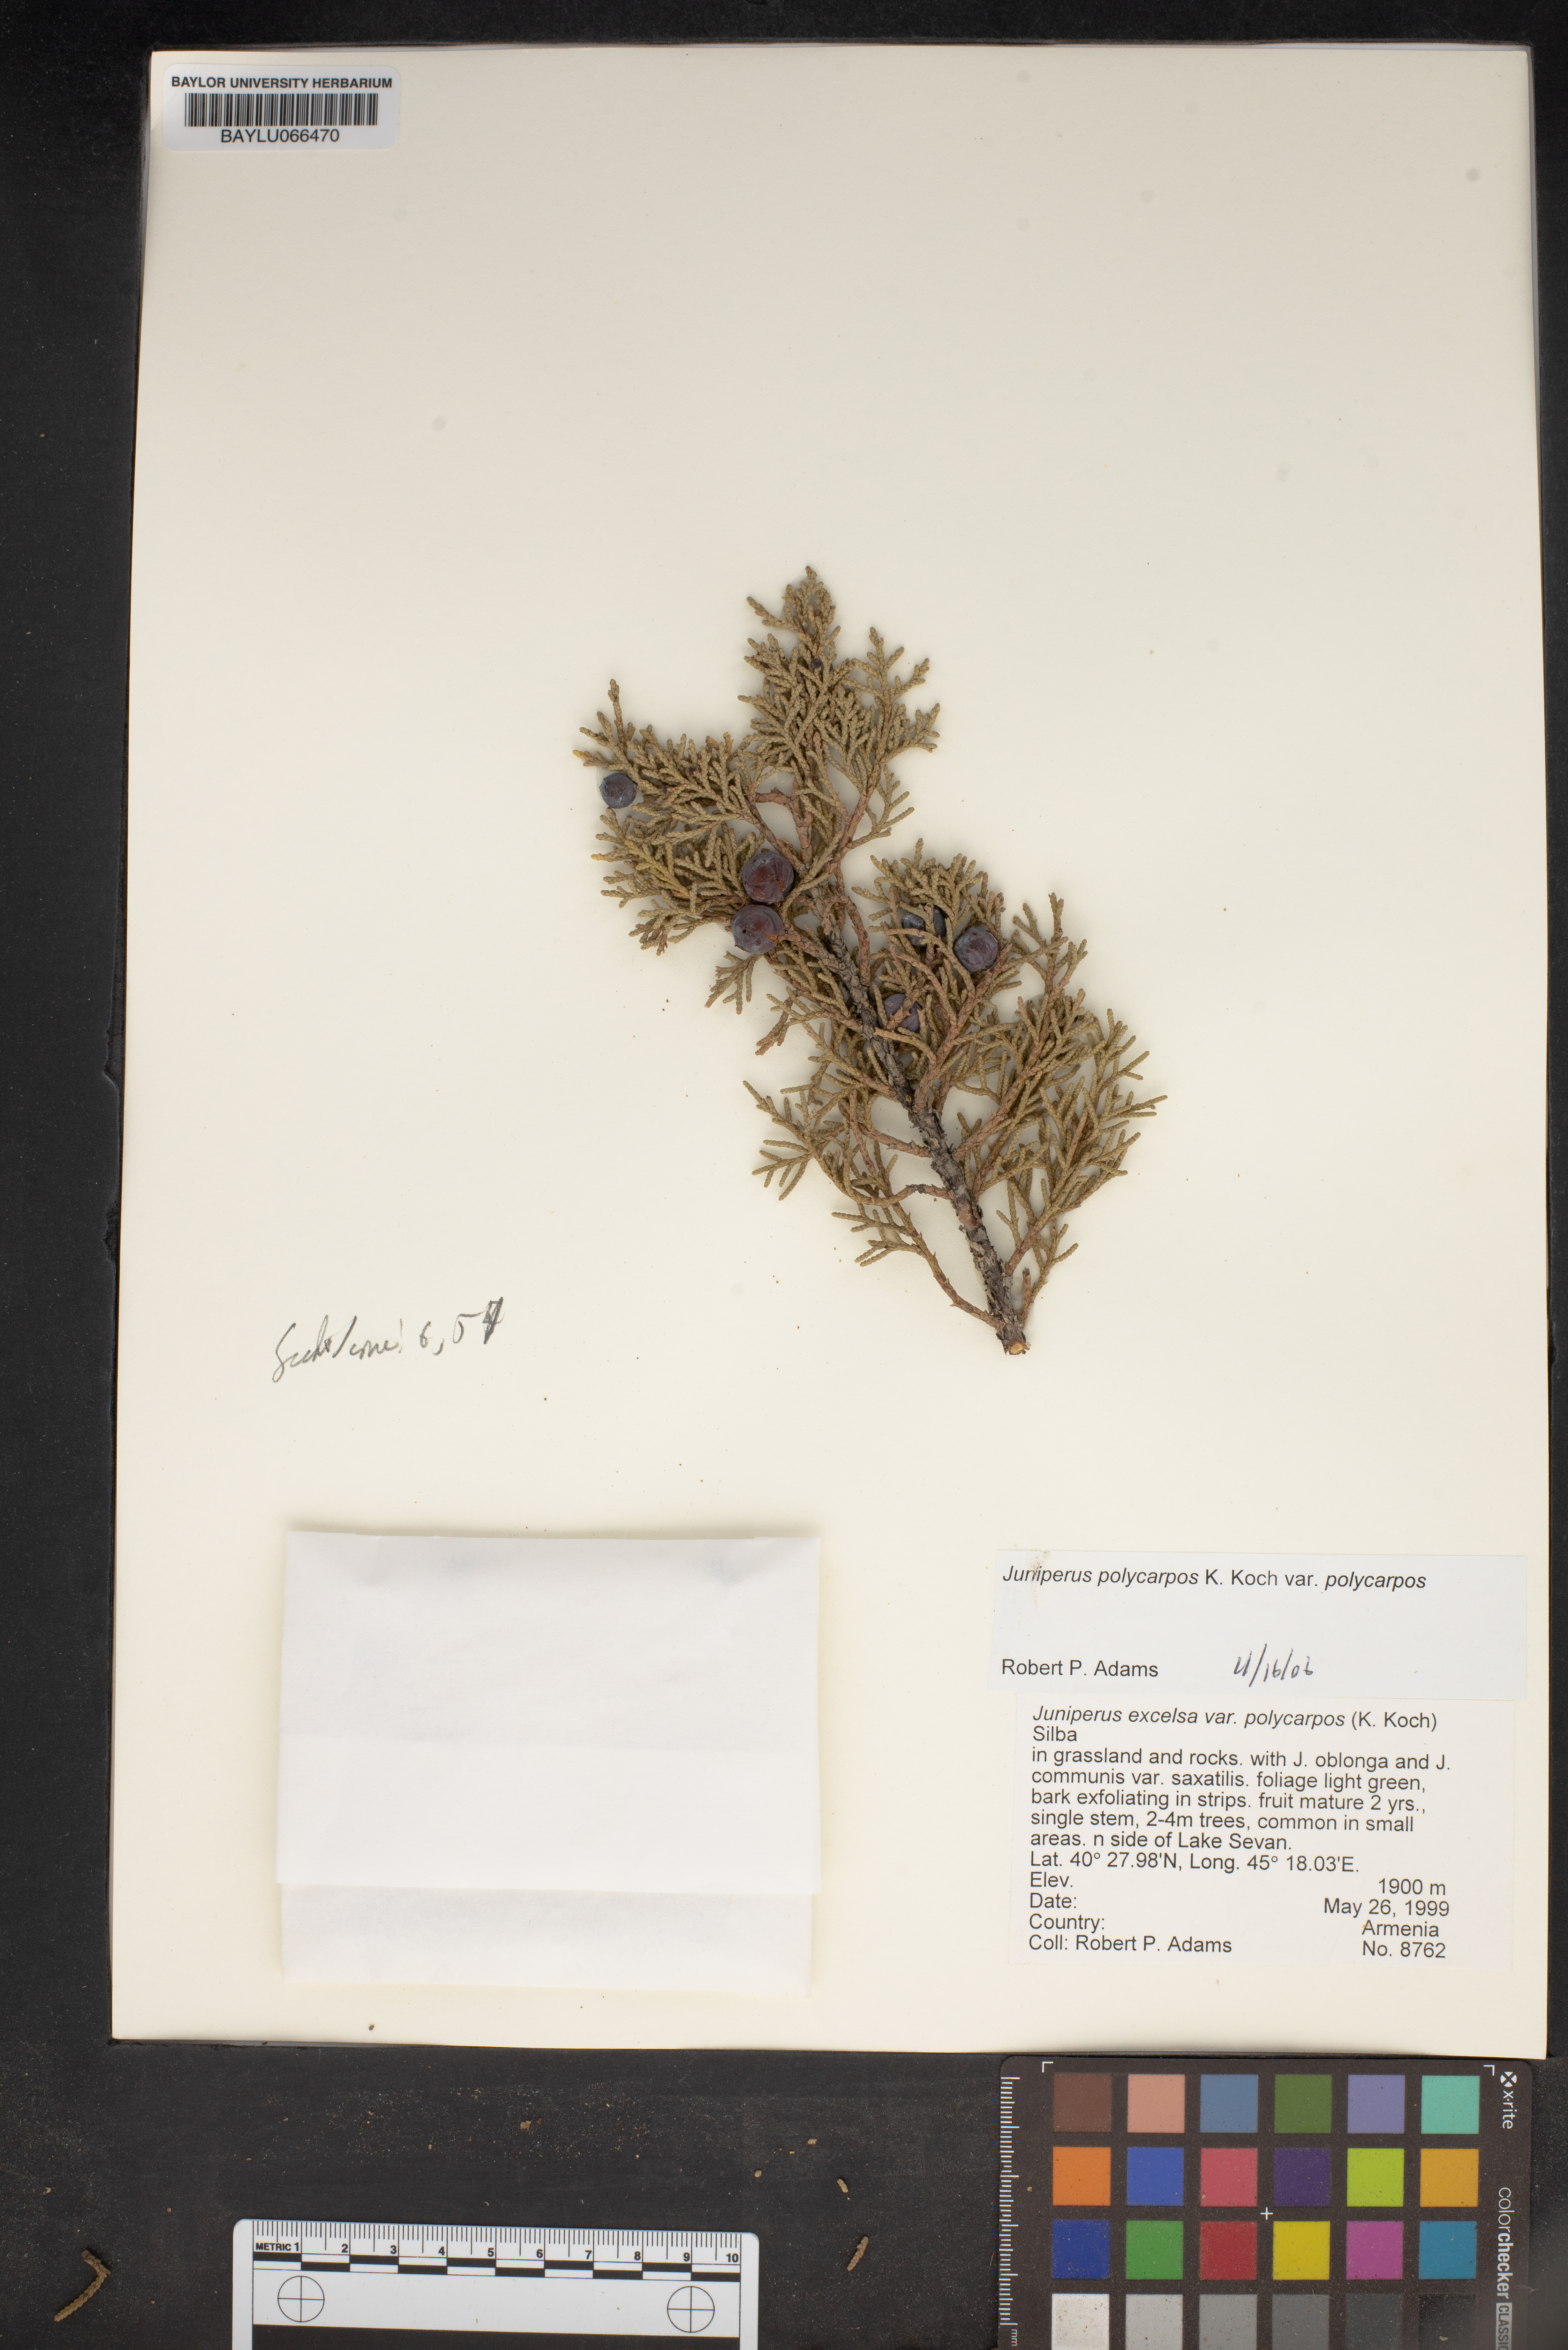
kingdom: Plantae
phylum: Tracheophyta
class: Pinopsida
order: Pinales
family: Cupressaceae
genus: Juniperus
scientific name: Juniperus excelsa
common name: Crimean juniper
